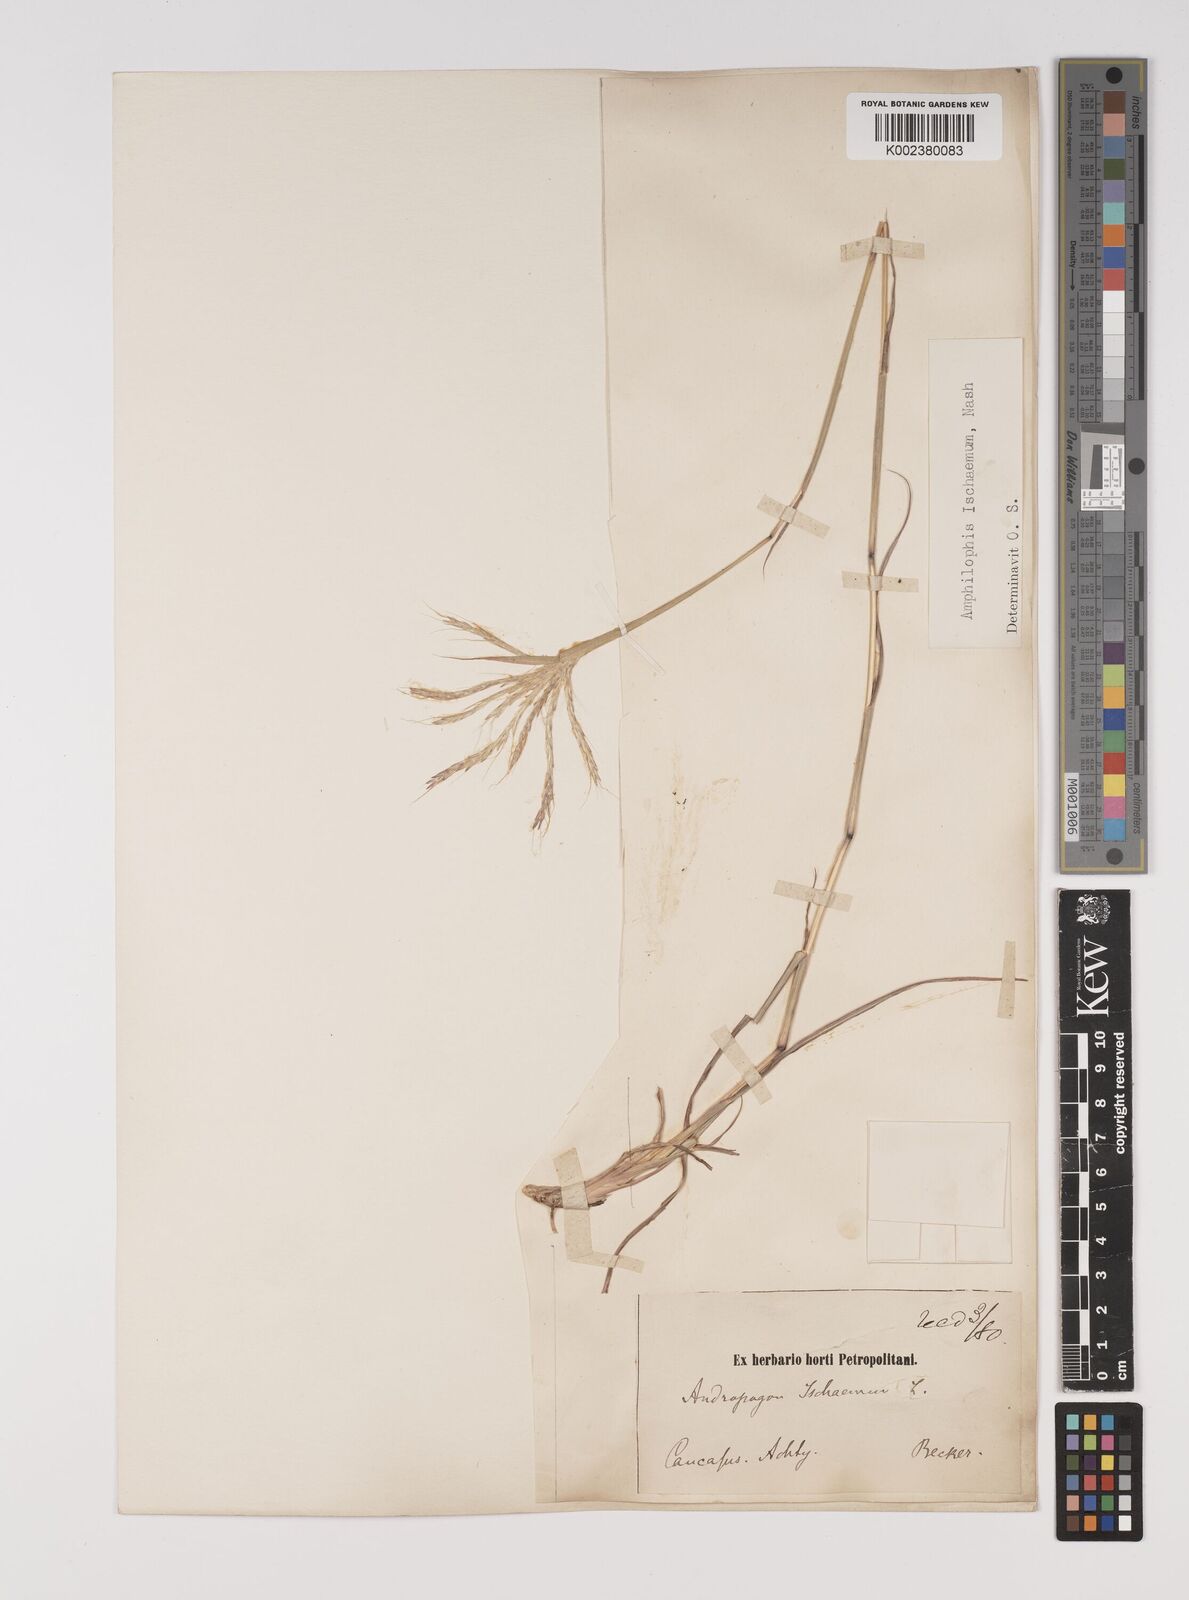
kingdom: Plantae
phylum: Tracheophyta
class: Liliopsida
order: Poales
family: Poaceae
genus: Bothriochloa
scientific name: Bothriochloa ischaemum
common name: Yellow bluestem
